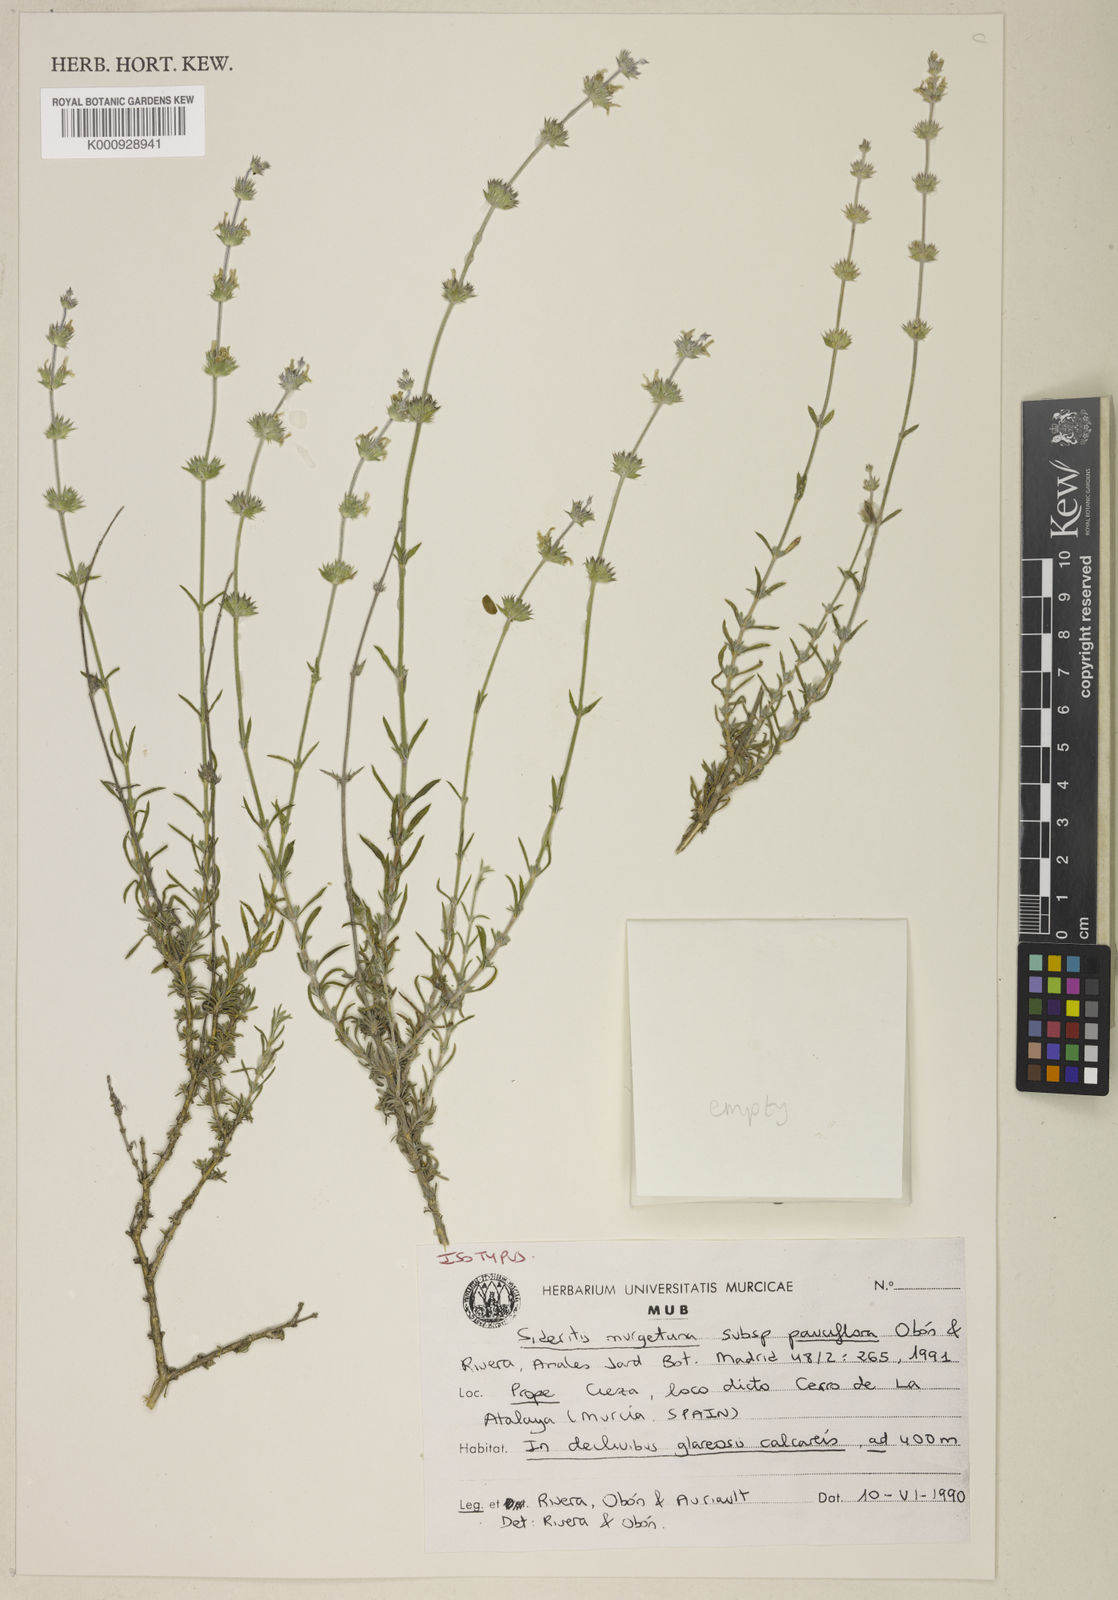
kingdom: Plantae
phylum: Tracheophyta
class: Magnoliopsida
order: Lamiales
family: Lamiaceae
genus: Sideritis
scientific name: Sideritis
